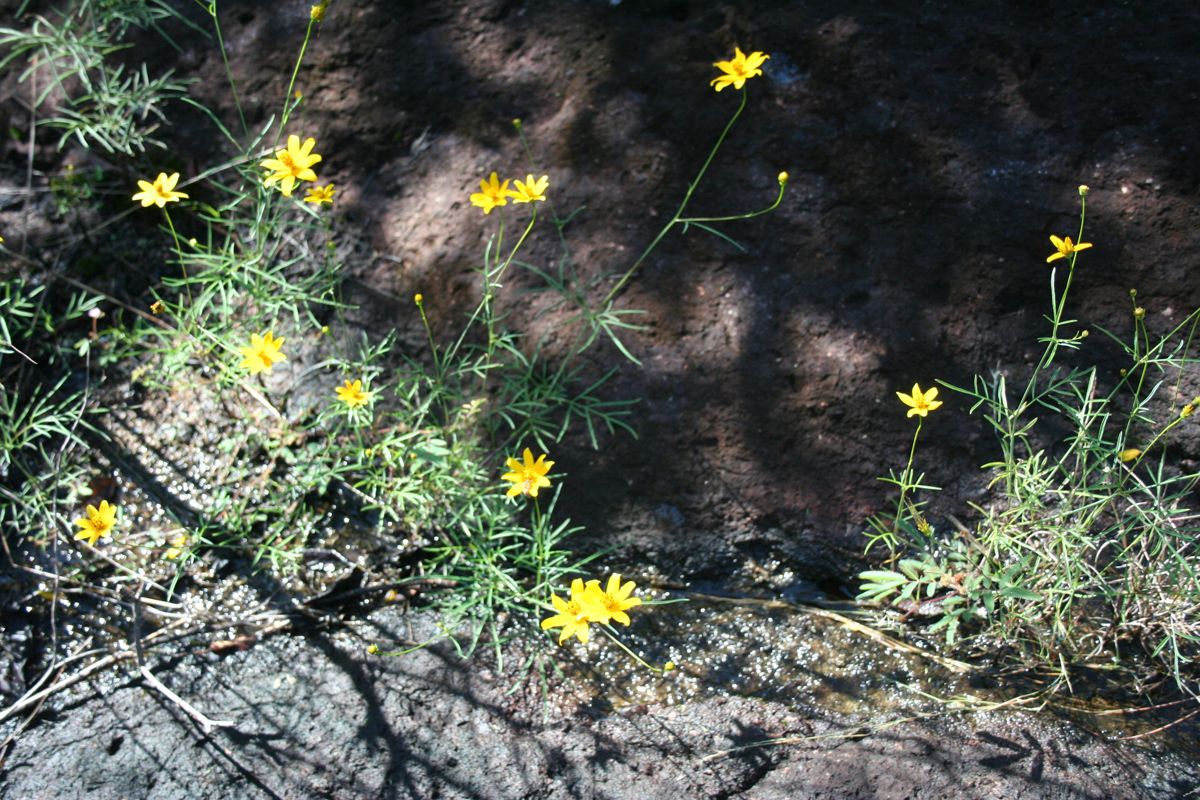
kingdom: Plantae
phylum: Tracheophyta
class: Magnoliopsida
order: Asterales
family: Asteraceae
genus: Cosmos
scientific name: Cosmos
